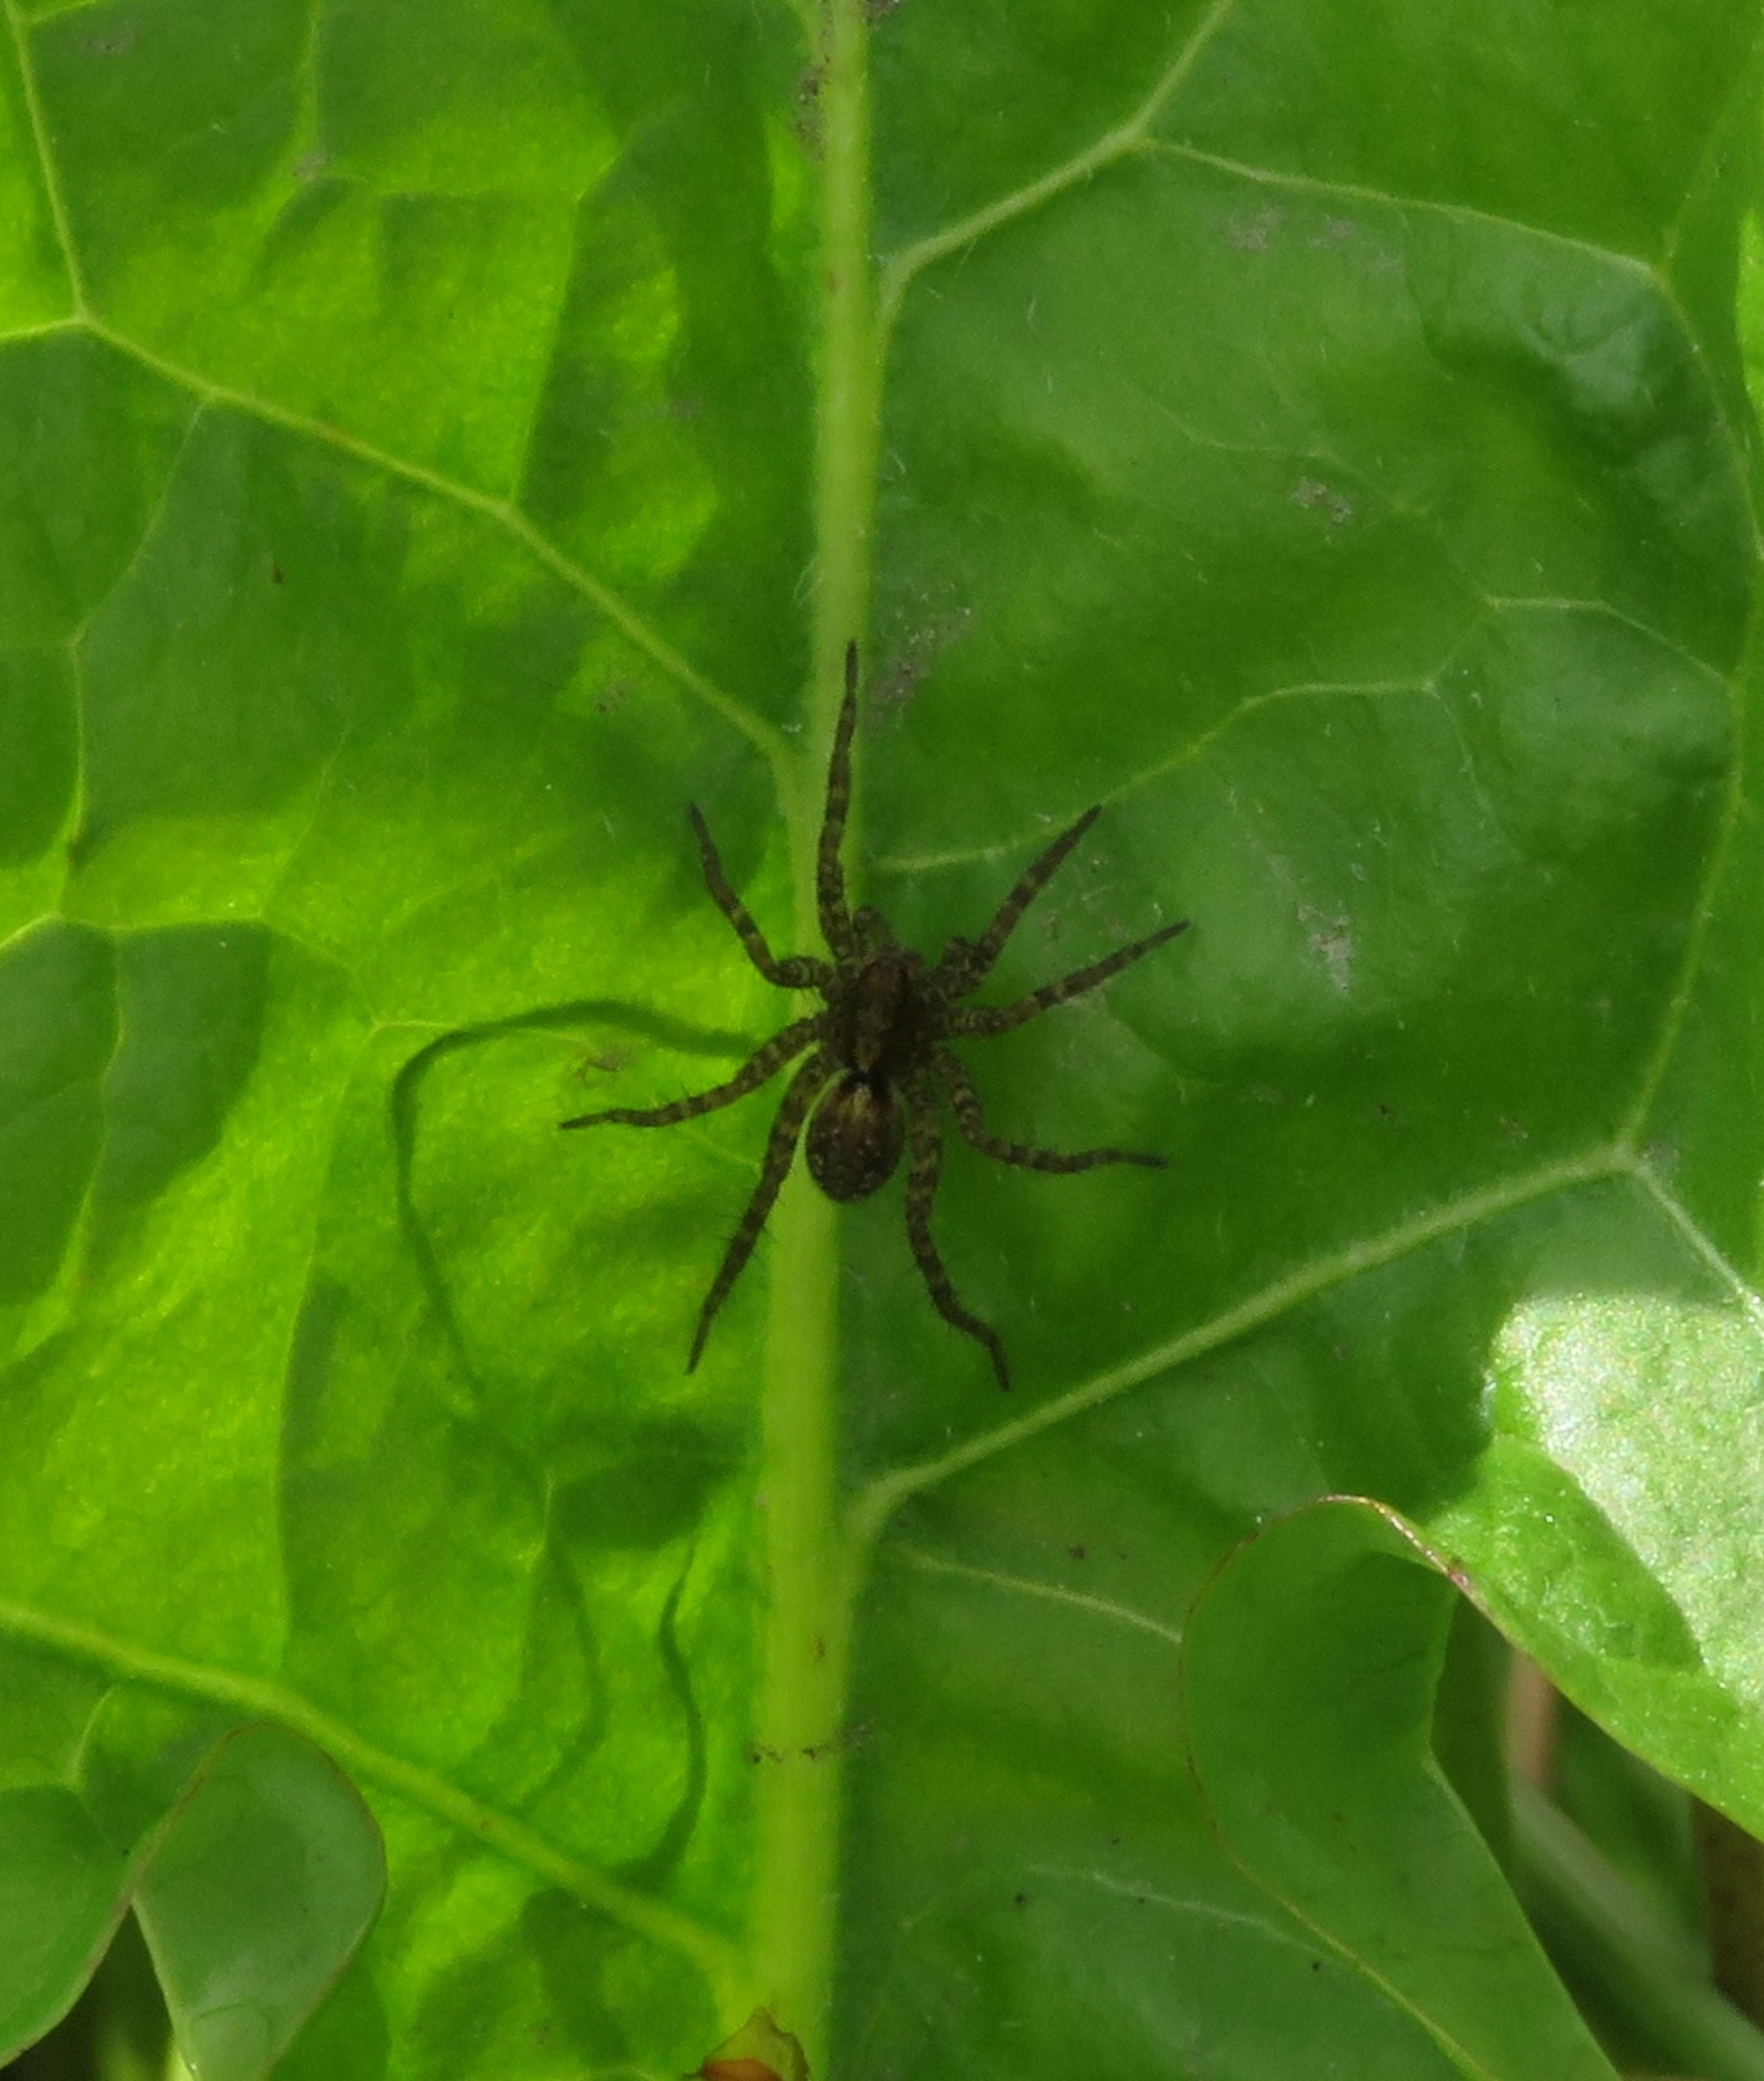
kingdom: Animalia
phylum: Arthropoda
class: Arachnida
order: Araneae
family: Lycosidae
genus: Pardosa
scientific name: Pardosa
